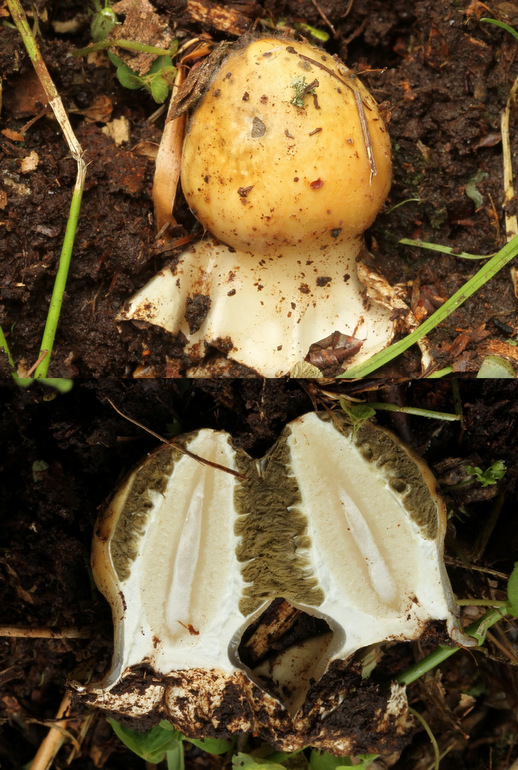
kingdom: Fungi
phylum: Basidiomycota
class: Agaricomycetes
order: Phallales
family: Phallaceae
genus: Phallus
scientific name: Phallus impudicus
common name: almindelig stinksvamp
